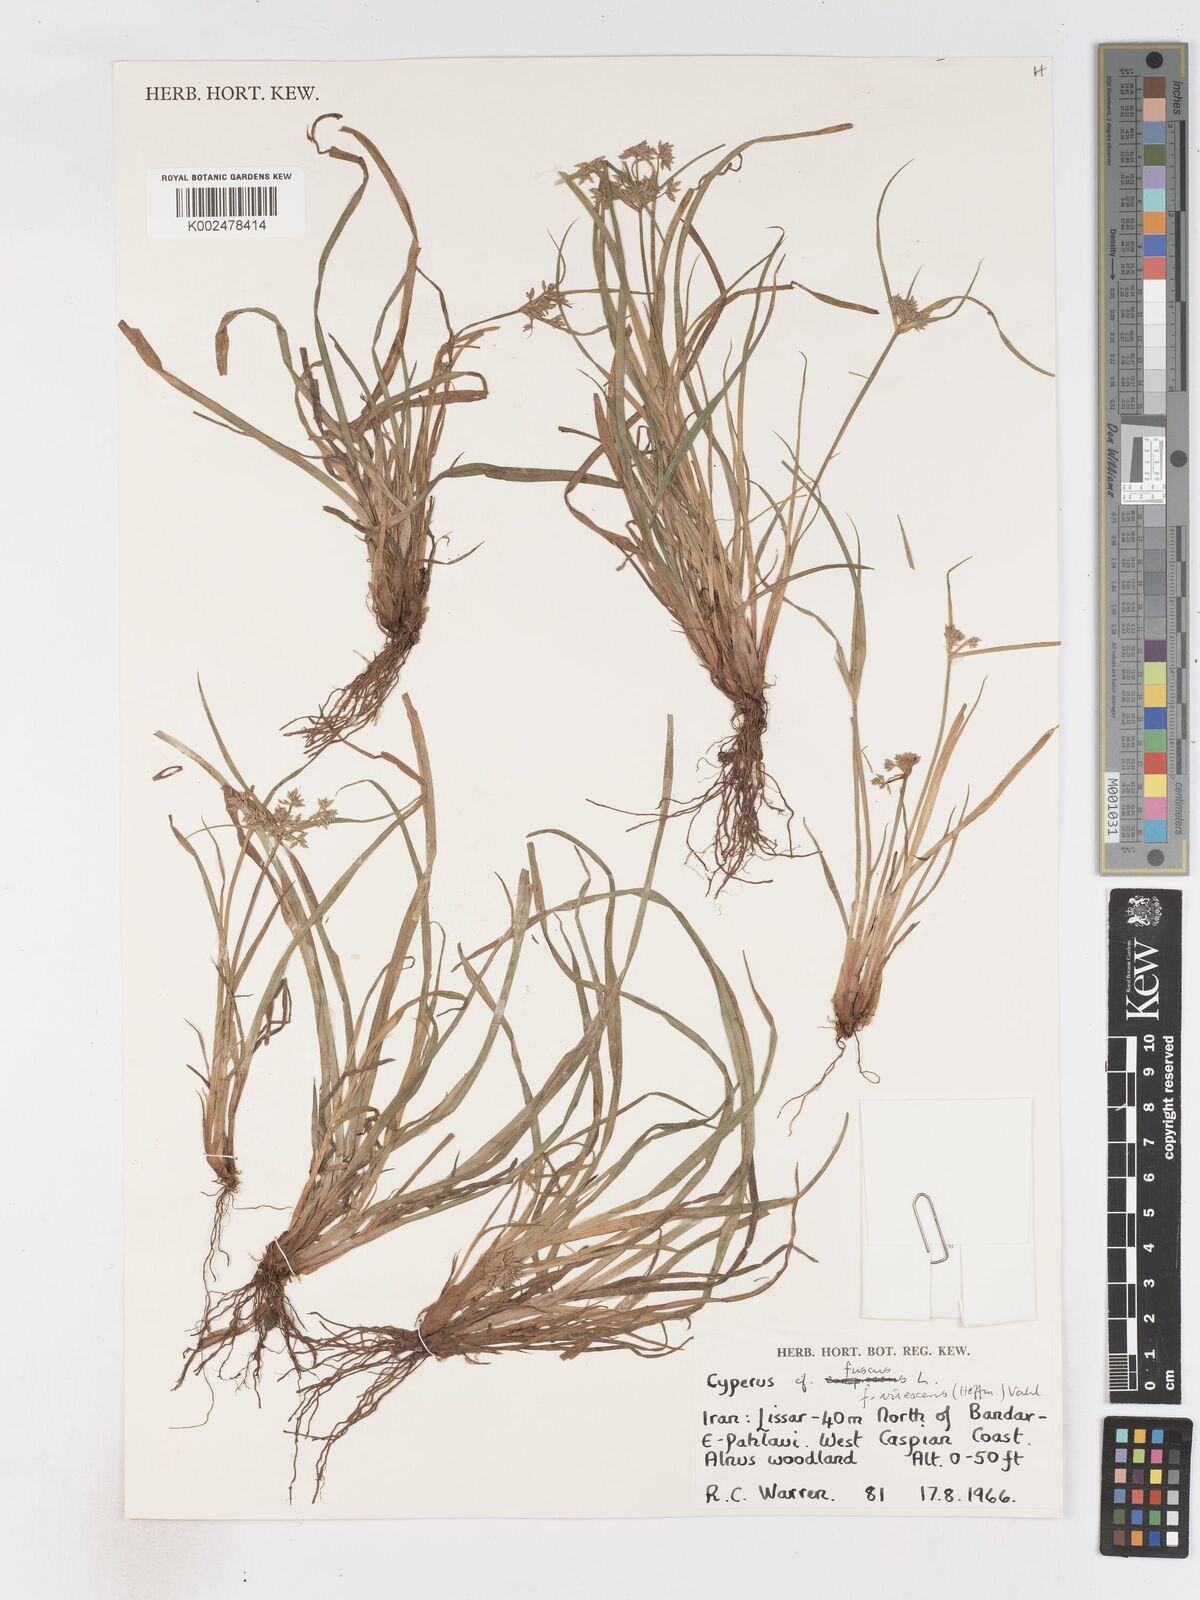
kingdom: Plantae
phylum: Tracheophyta
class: Liliopsida
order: Poales
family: Cyperaceae
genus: Cyperus
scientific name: Cyperus fuscus
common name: Brown galingale
